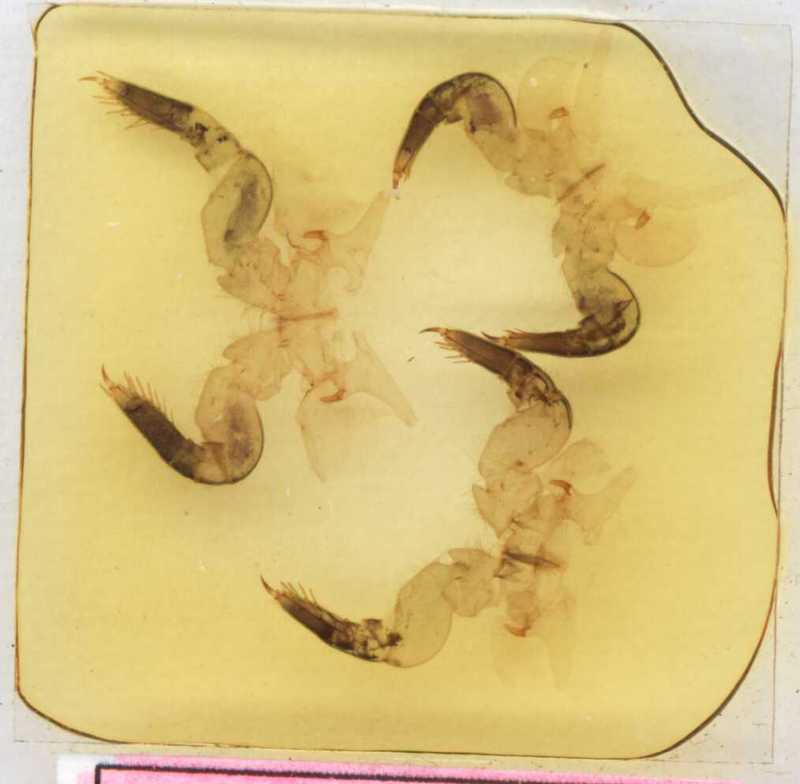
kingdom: Animalia
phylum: Arthropoda
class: Diplopoda
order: Sphaerotheriida
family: Zephroniidae
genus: Sphaeropoeus
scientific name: Sphaeropoeus
